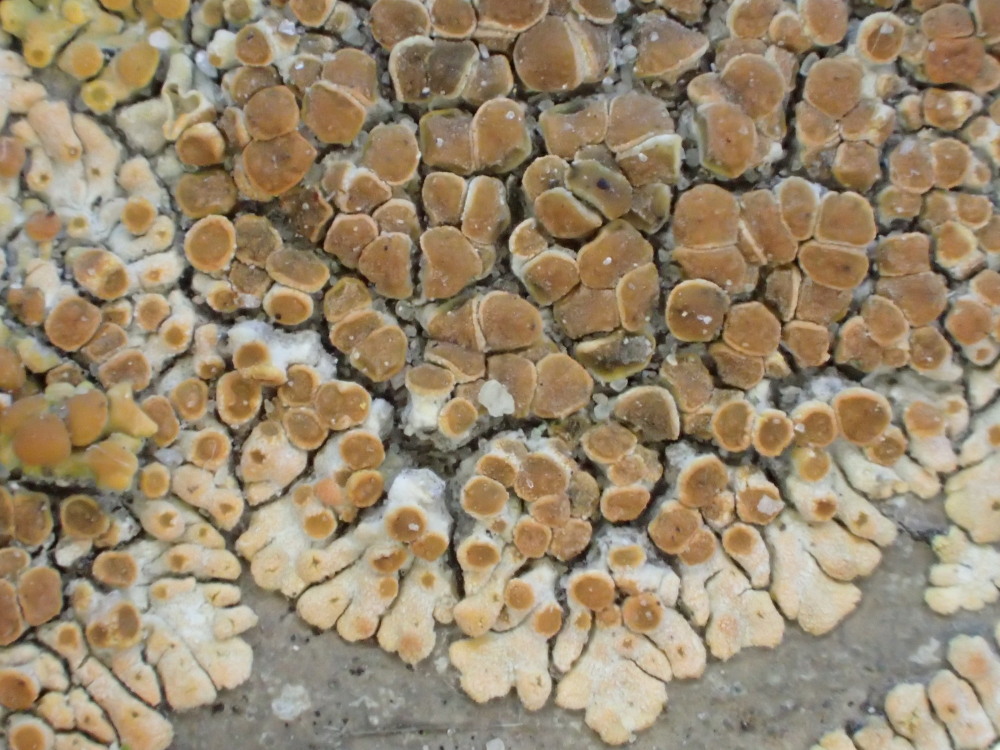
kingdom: Fungi
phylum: Ascomycota
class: Lecanoromycetes
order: Teloschistales
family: Teloschistaceae
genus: Calogaya
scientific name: Calogaya pusilla
